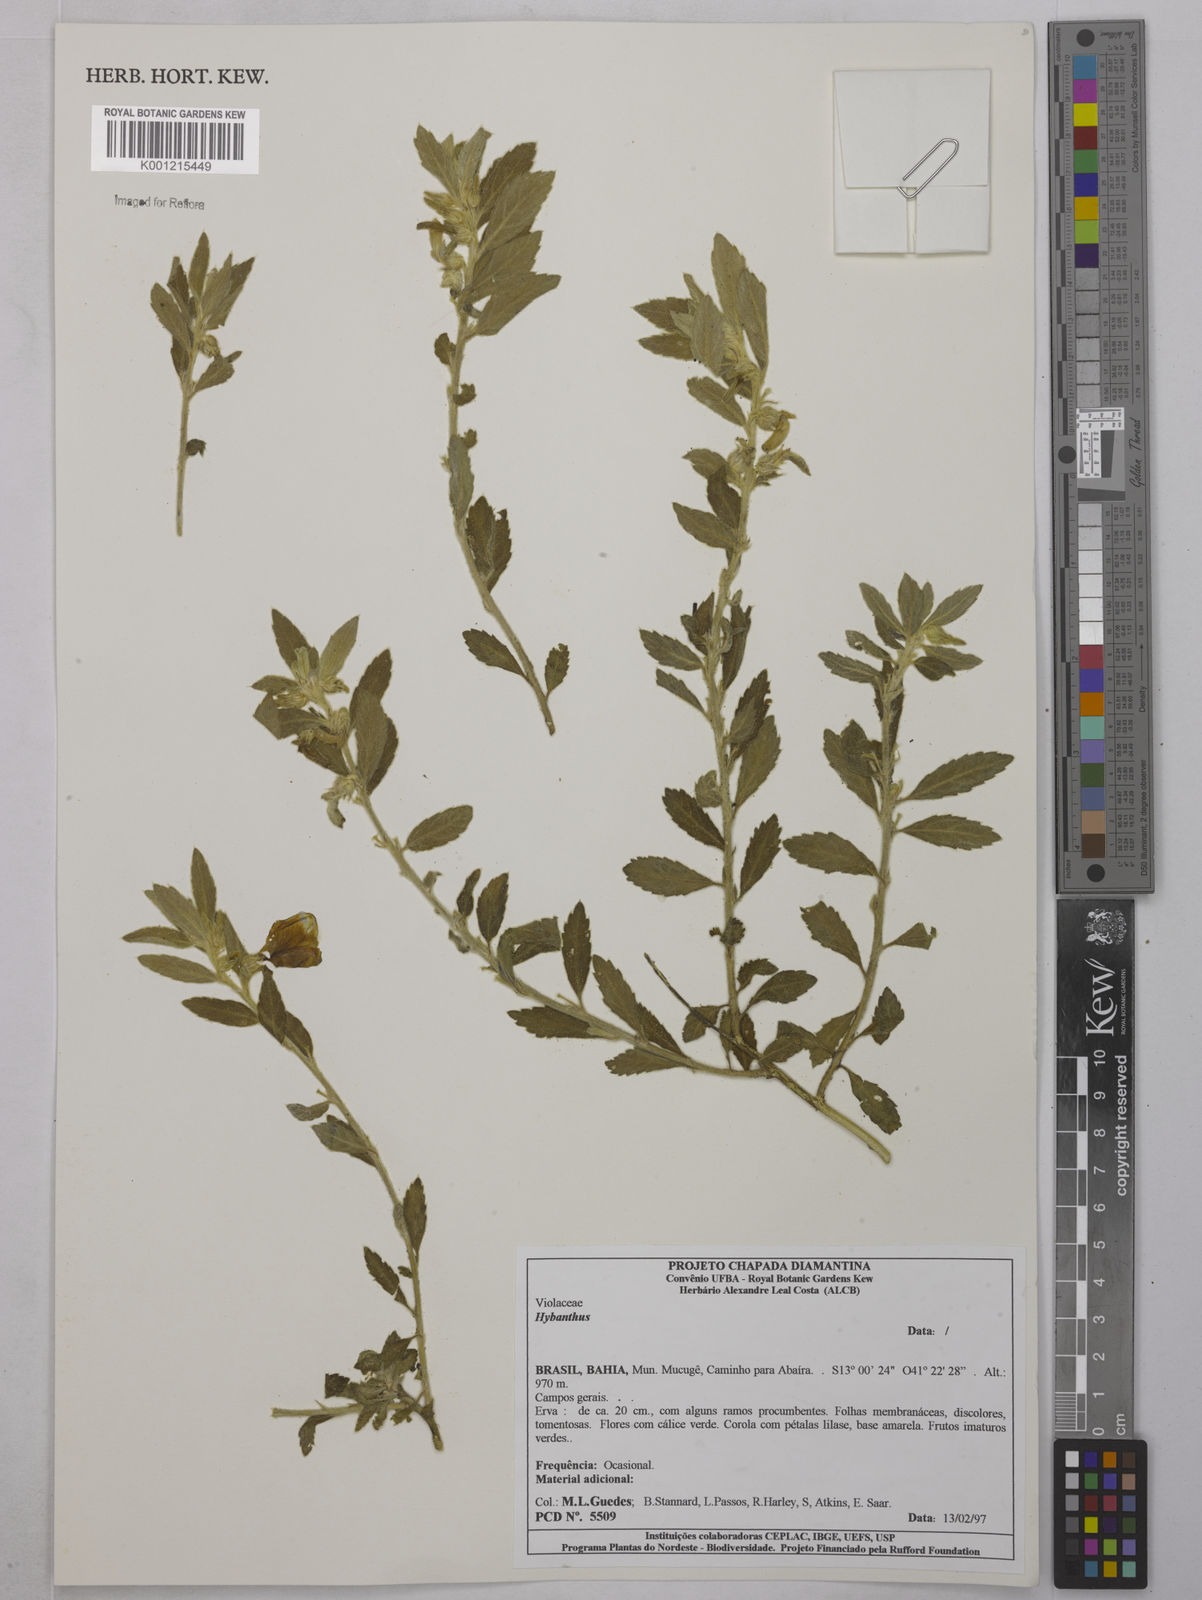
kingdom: Plantae
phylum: Tracheophyta
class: Magnoliopsida
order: Malpighiales
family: Violaceae
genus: Hybanthus
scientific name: Hybanthus
